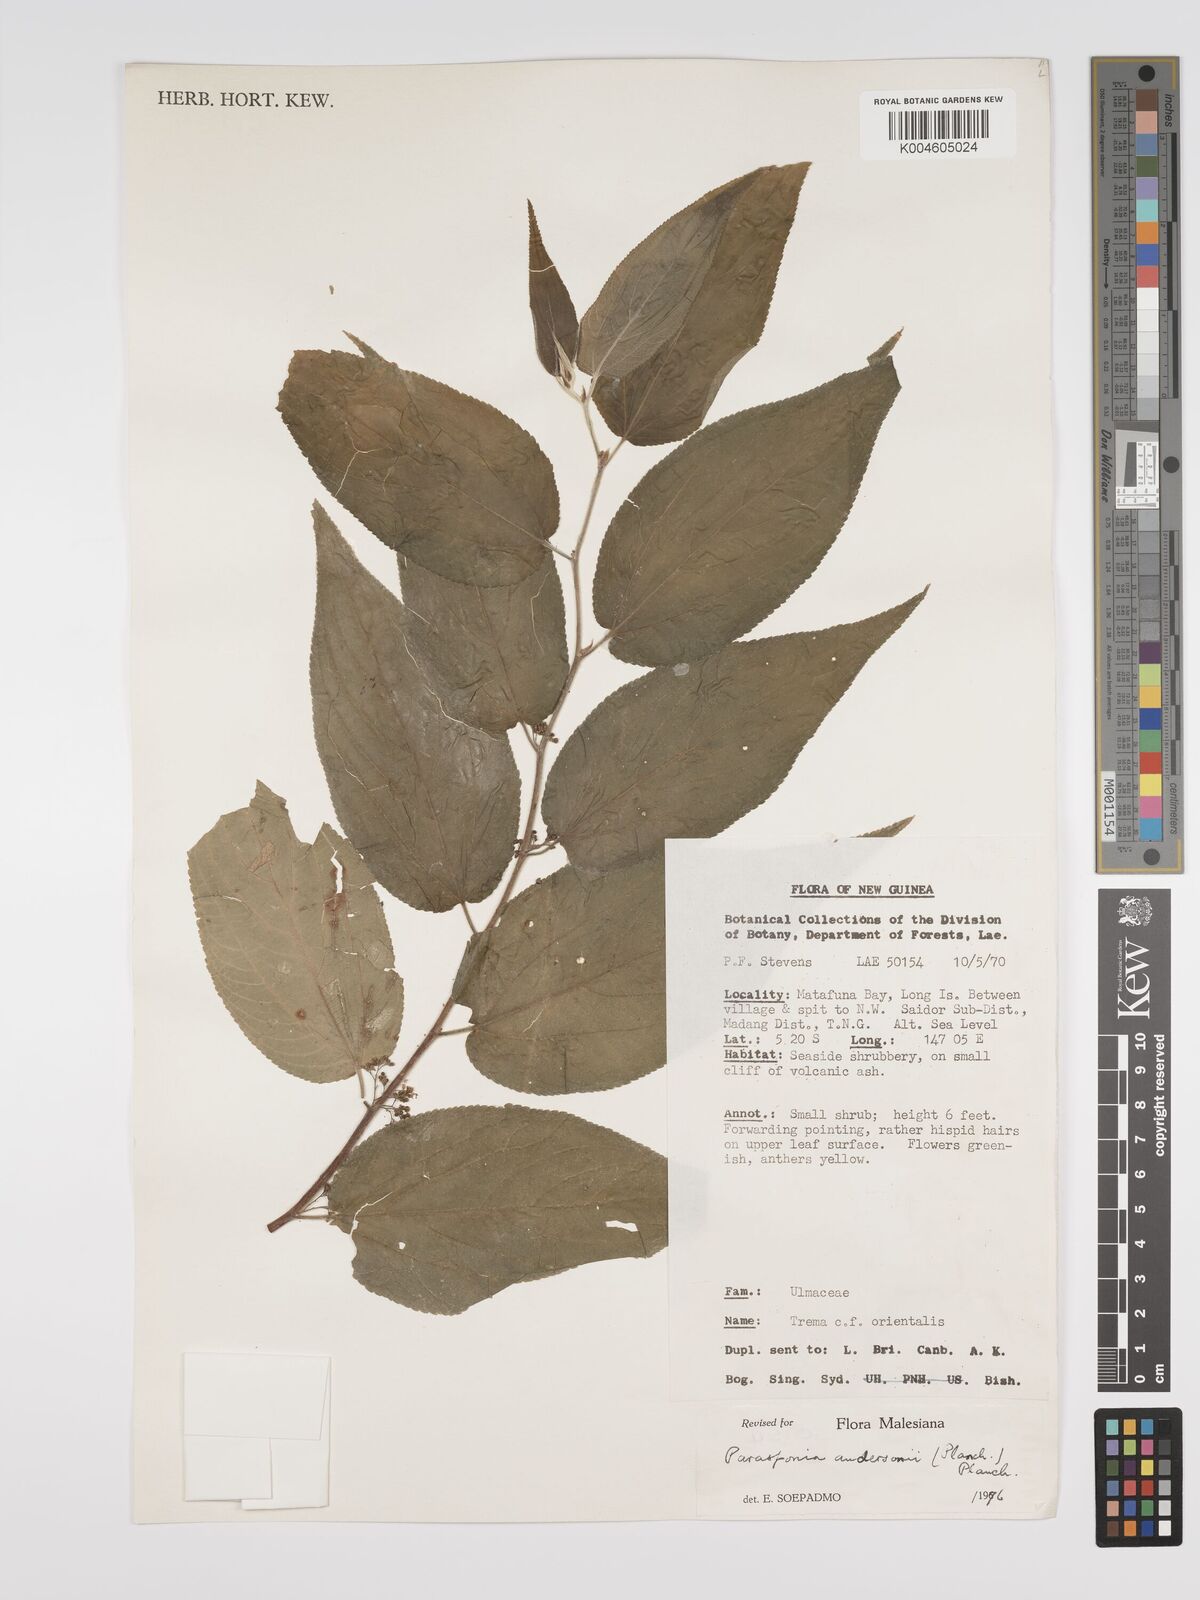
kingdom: Plantae
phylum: Tracheophyta
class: Magnoliopsida
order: Rosales
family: Cannabaceae
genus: Trema
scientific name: Trema andersonii
